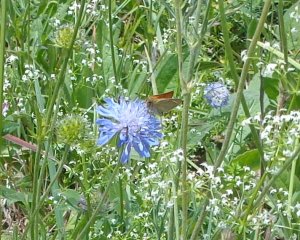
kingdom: Animalia
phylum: Arthropoda
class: Insecta
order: Lepidoptera
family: Hesperiidae
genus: Thymelicus
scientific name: Thymelicus lineola
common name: European Skipper
